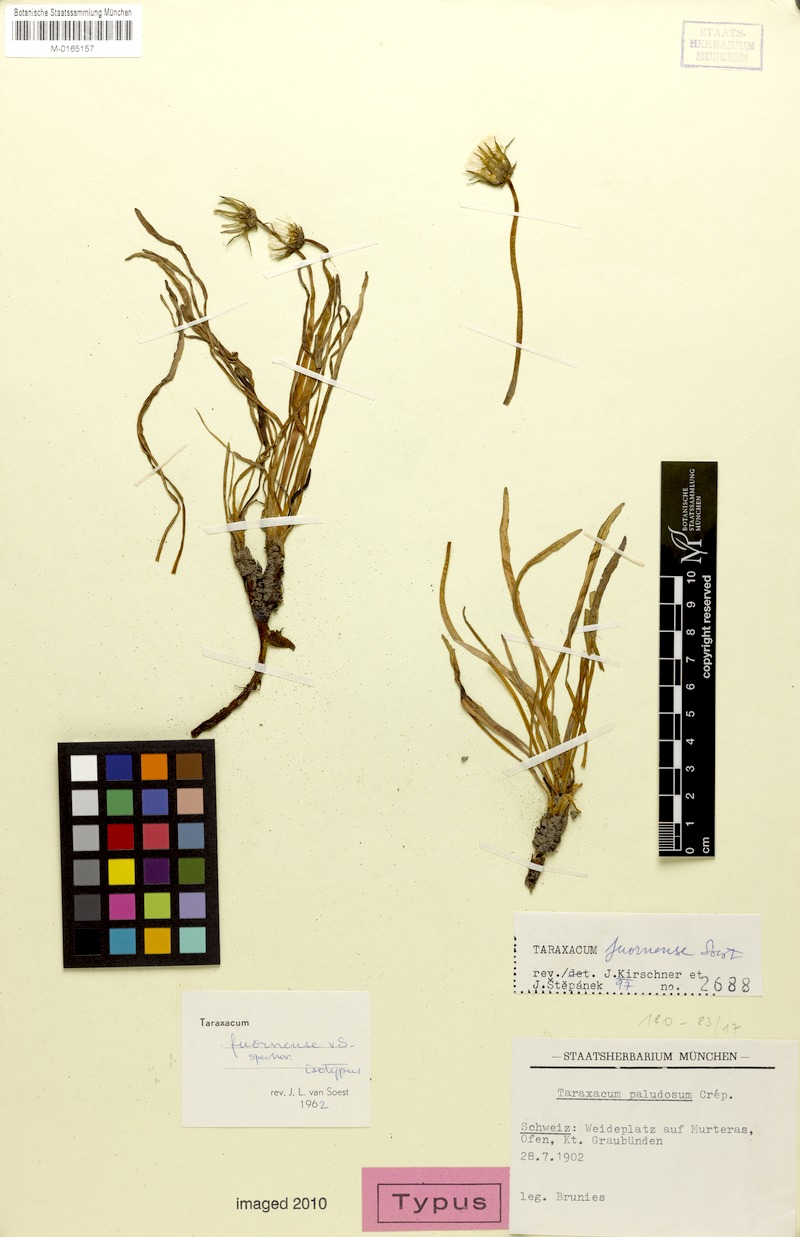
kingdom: Plantae
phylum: Tracheophyta
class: Magnoliopsida
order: Asterales
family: Asteraceae
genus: Taraxacum
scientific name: Taraxacum fuornense
